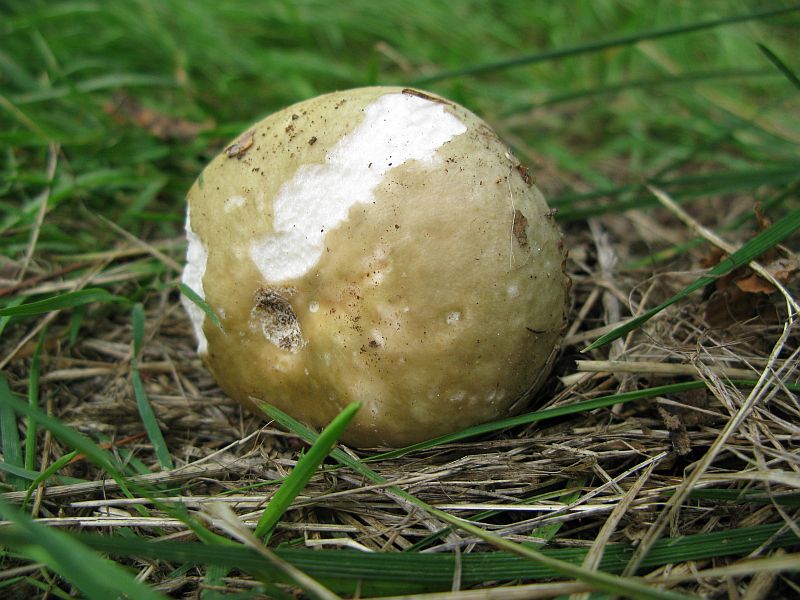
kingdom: Fungi
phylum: Basidiomycota
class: Agaricomycetes
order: Russulales
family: Russulaceae
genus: Russula
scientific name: Russula
